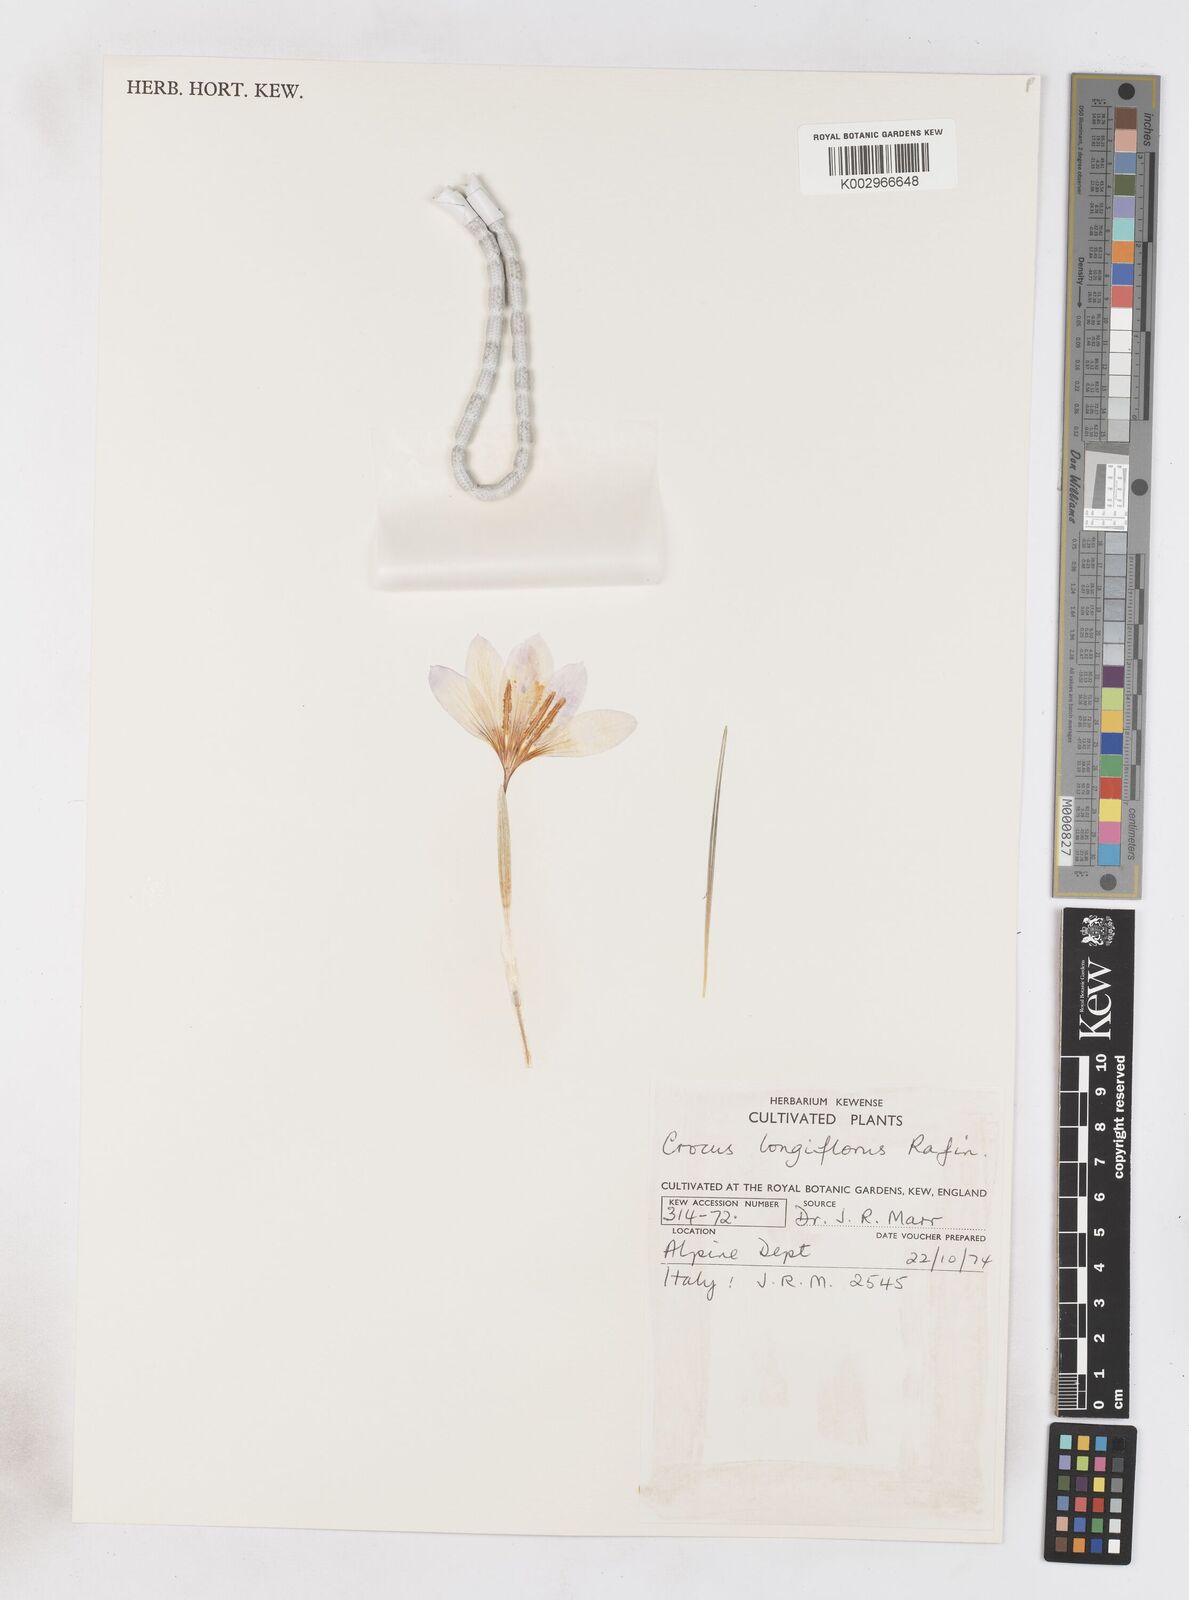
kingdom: Plantae
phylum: Tracheophyta
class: Liliopsida
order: Asparagales
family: Iridaceae
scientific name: Iridaceae
